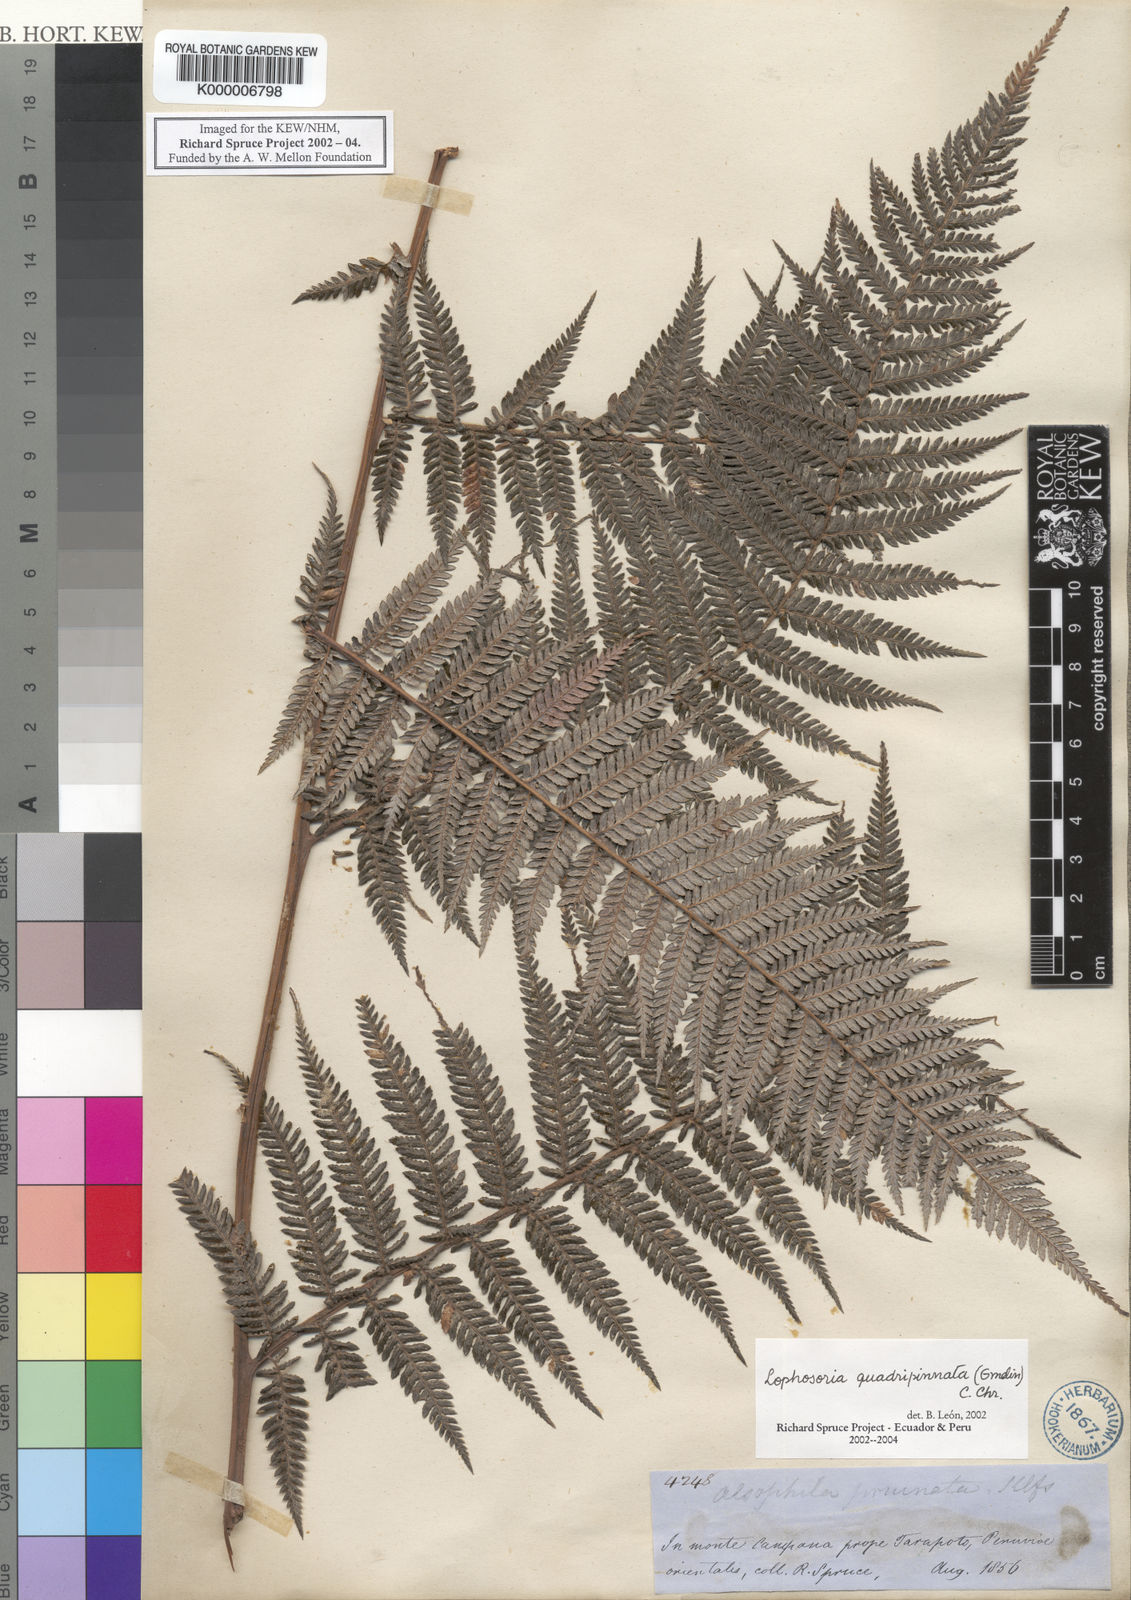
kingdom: Plantae
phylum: Tracheophyta
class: Polypodiopsida
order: Cyatheales
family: Dicksoniaceae
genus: Lophosoria
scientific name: Lophosoria quadripinnata
